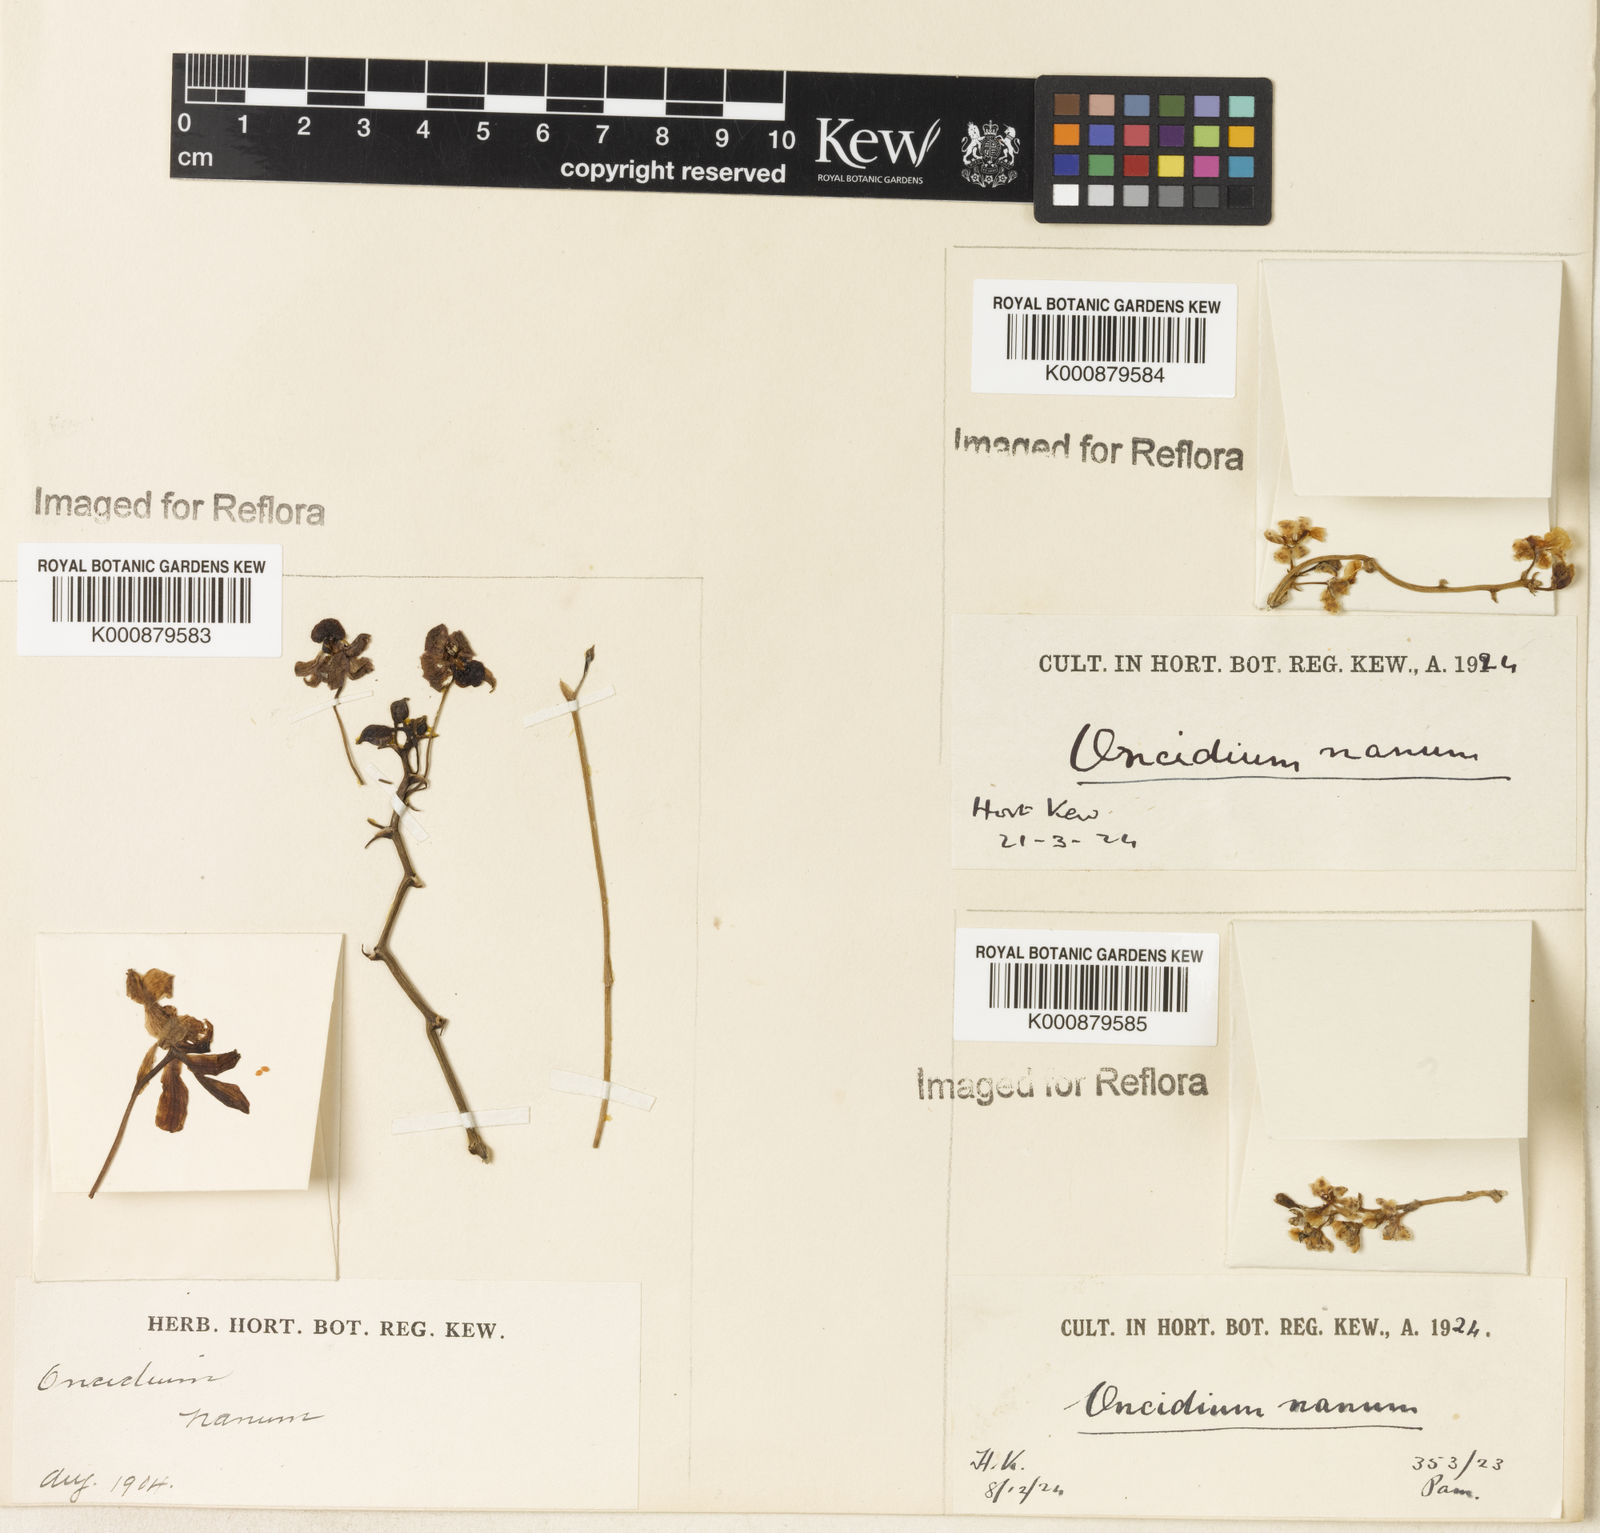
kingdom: Plantae
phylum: Tracheophyta
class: Liliopsida
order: Asparagales
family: Orchidaceae
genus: Trichocentrum
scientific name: Trichocentrum nanum
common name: Mule-ear orchid
